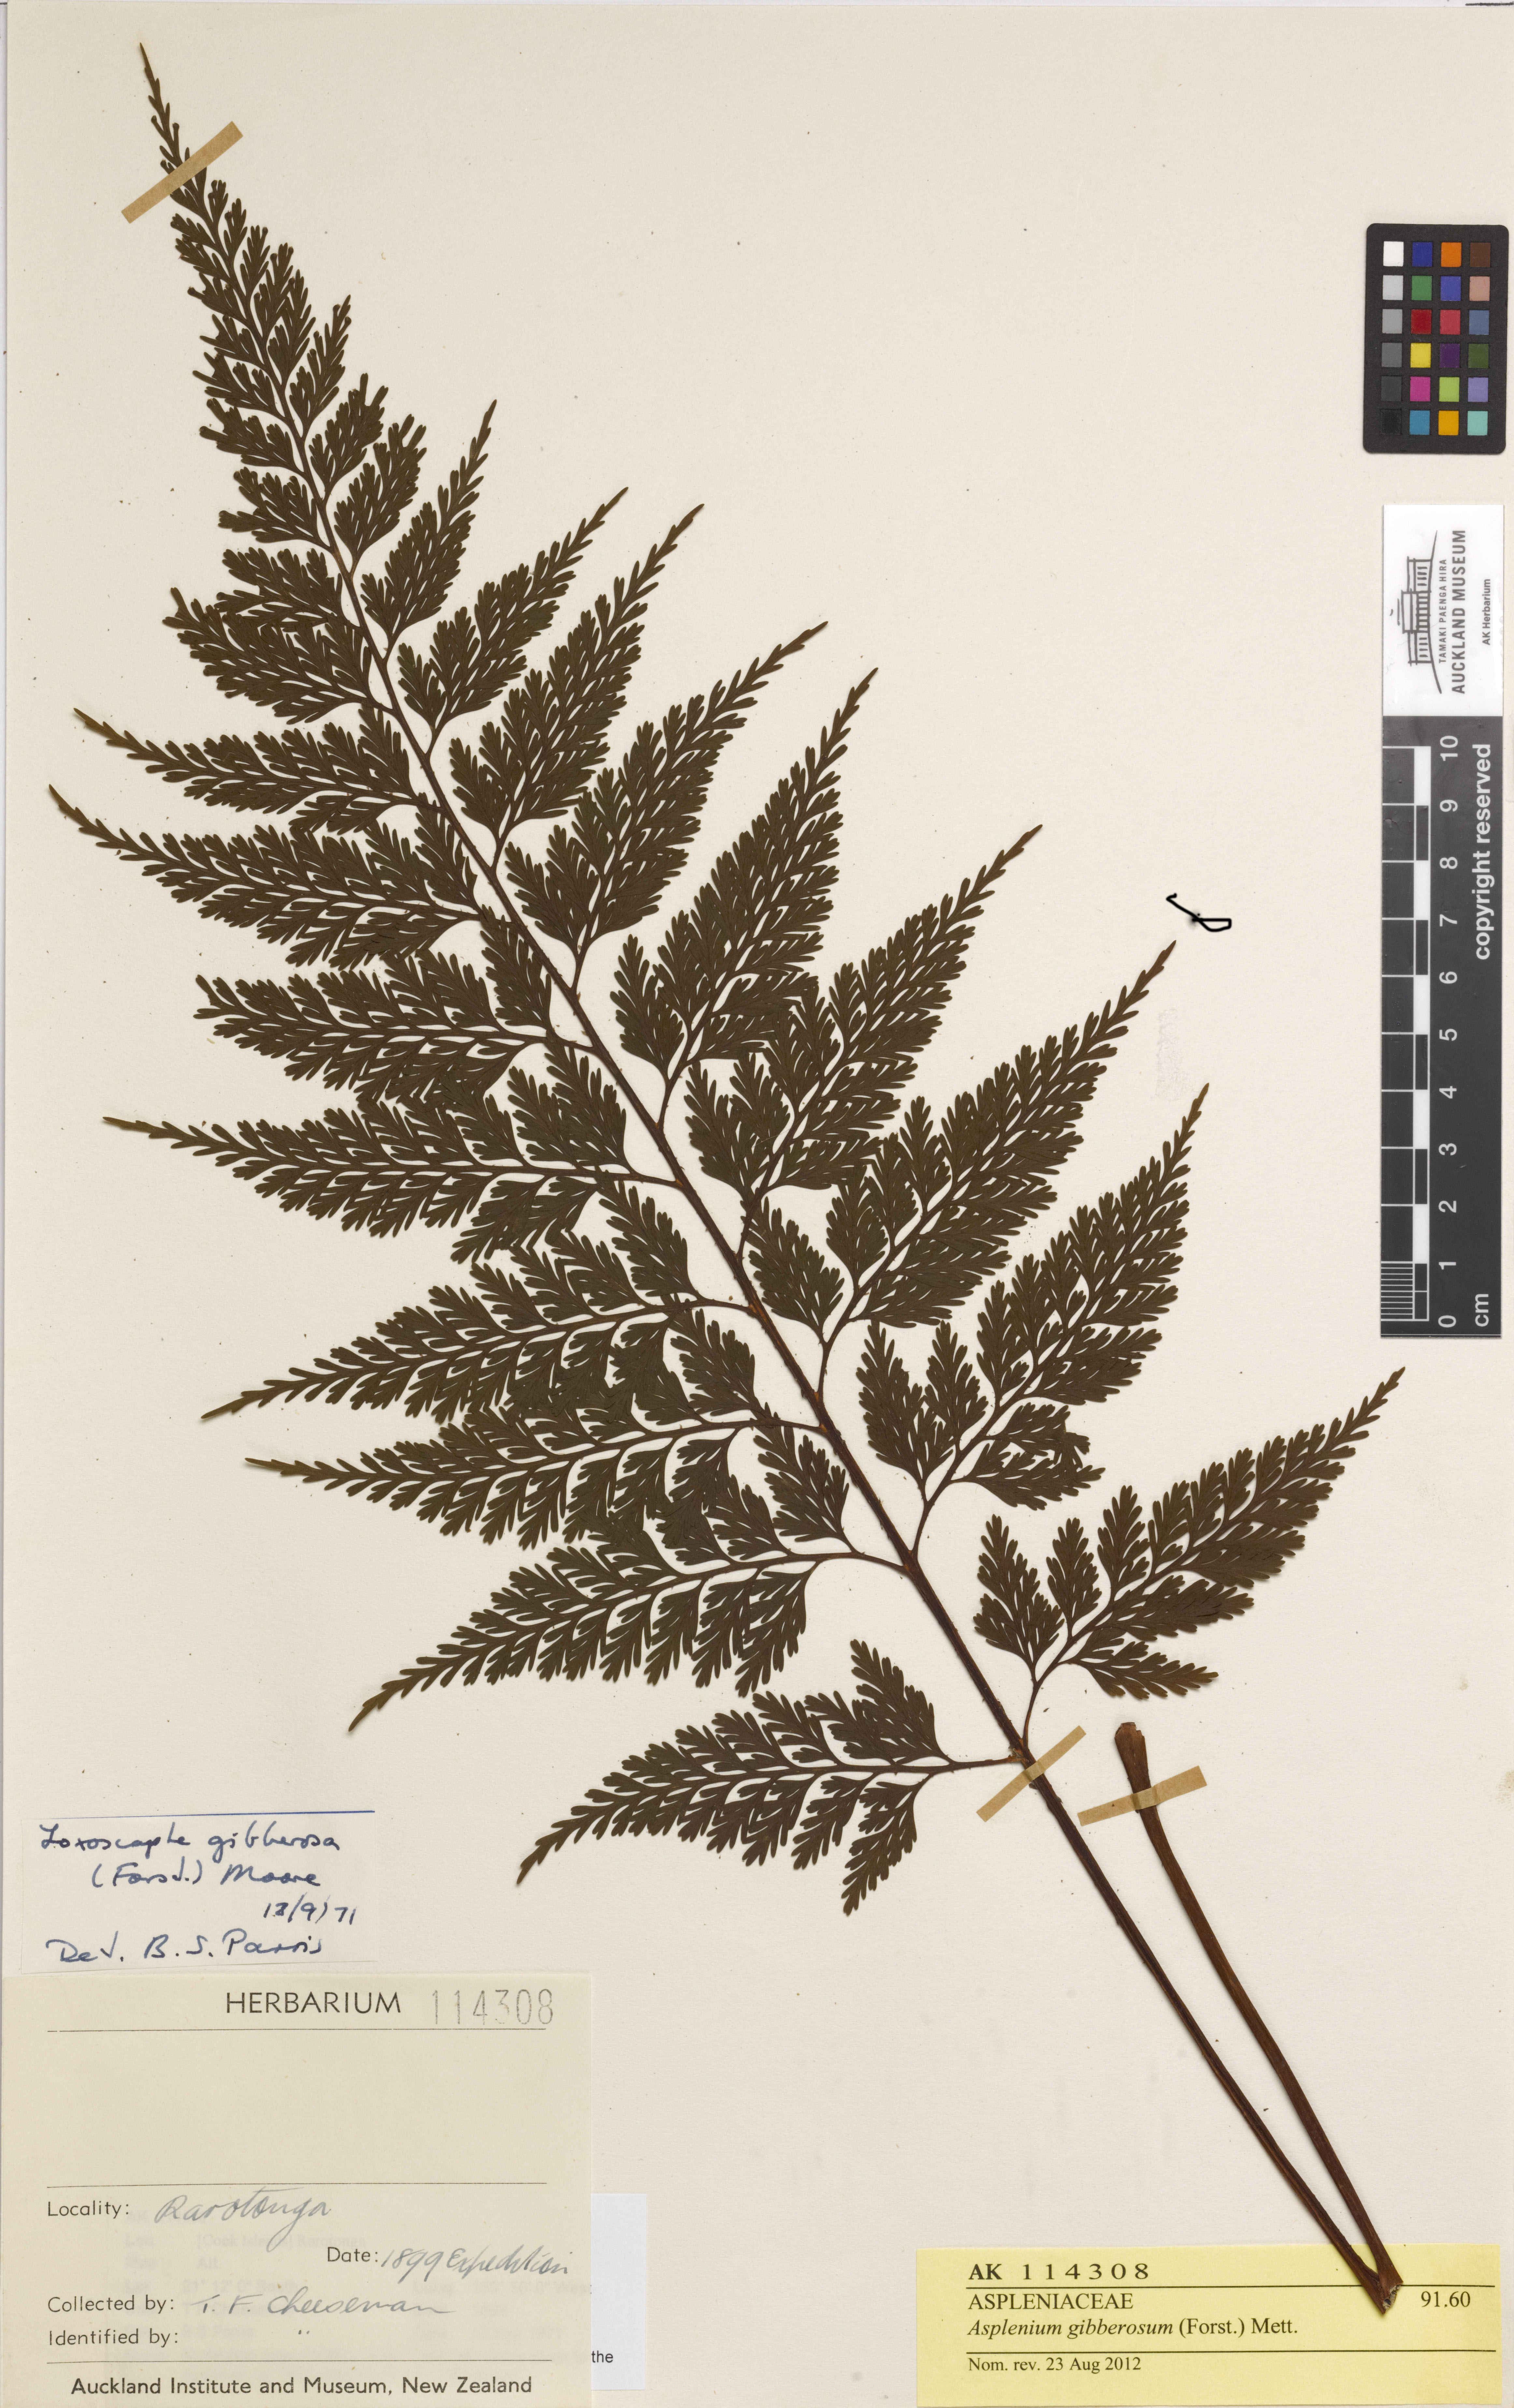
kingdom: Plantae
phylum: Tracheophyta
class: Polypodiopsida
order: Polypodiales
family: Aspleniaceae
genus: Asplenium
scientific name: Asplenium gibberosum
